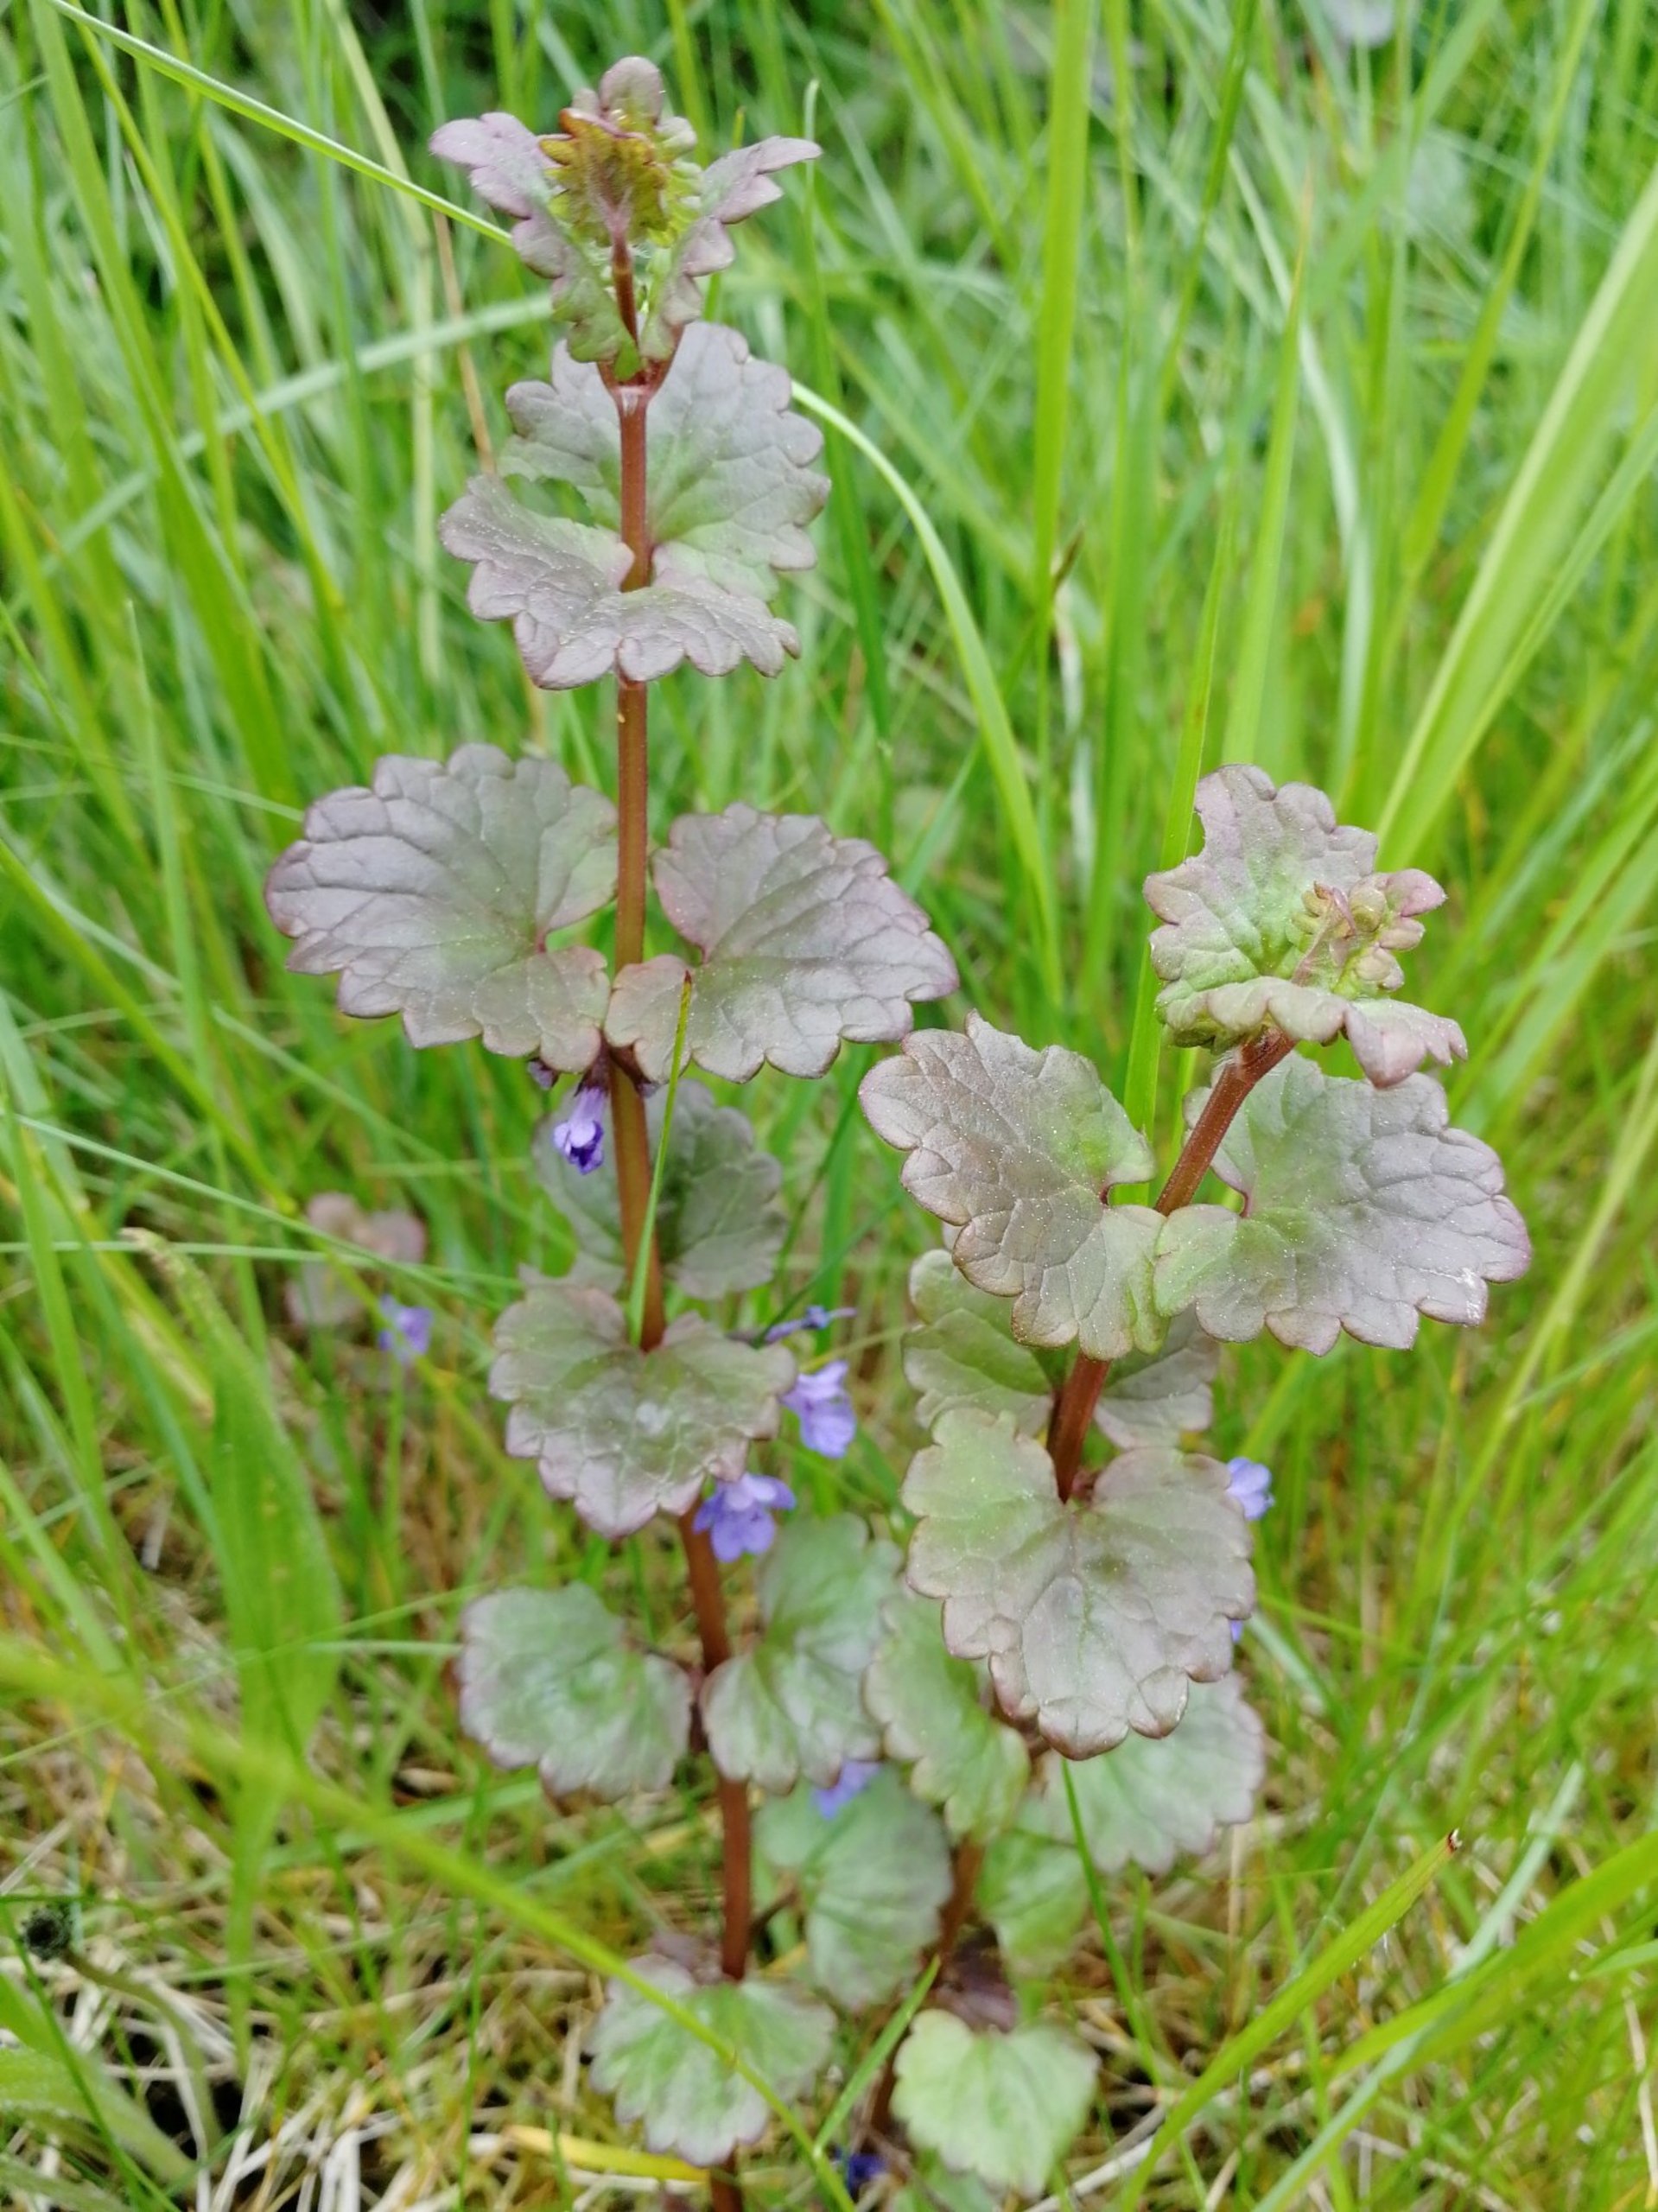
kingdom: Plantae
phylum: Tracheophyta
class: Magnoliopsida
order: Lamiales
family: Lamiaceae
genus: Glechoma
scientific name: Glechoma hederacea
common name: Korsknap
